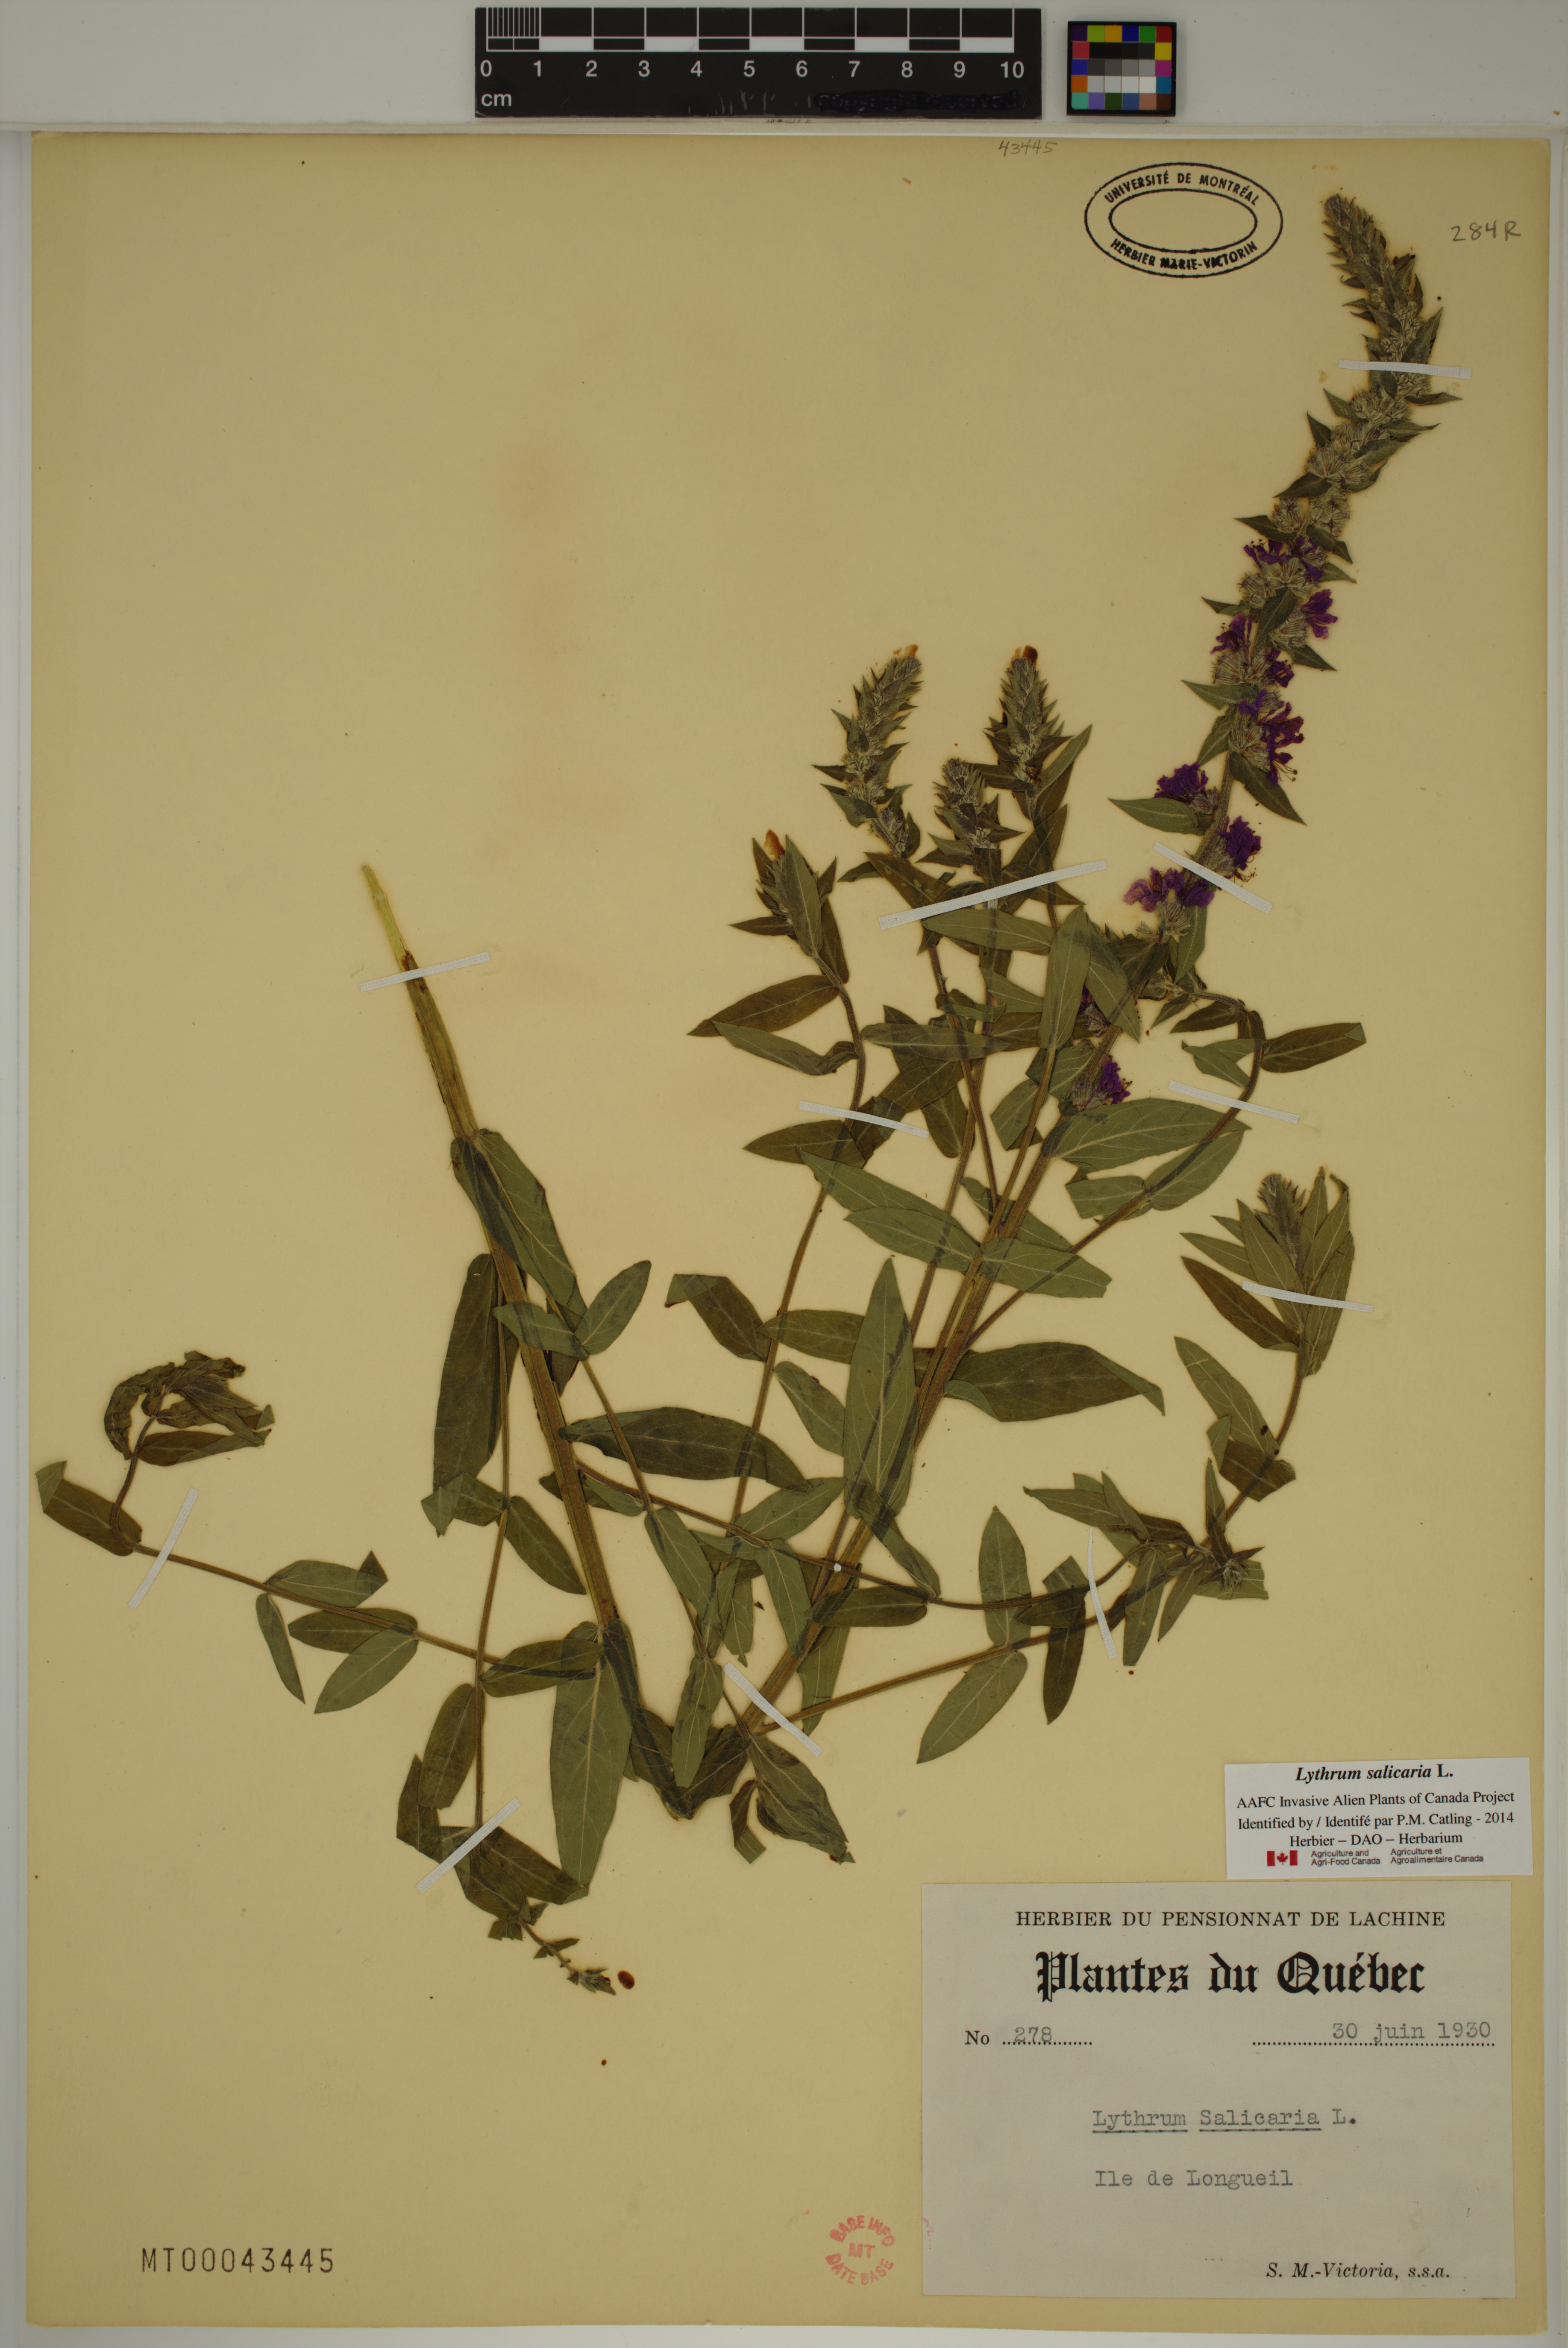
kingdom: Plantae
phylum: Tracheophyta
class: Magnoliopsida
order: Myrtales
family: Lythraceae
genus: Lythrum
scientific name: Lythrum salicaria
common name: Purple loosestrife
